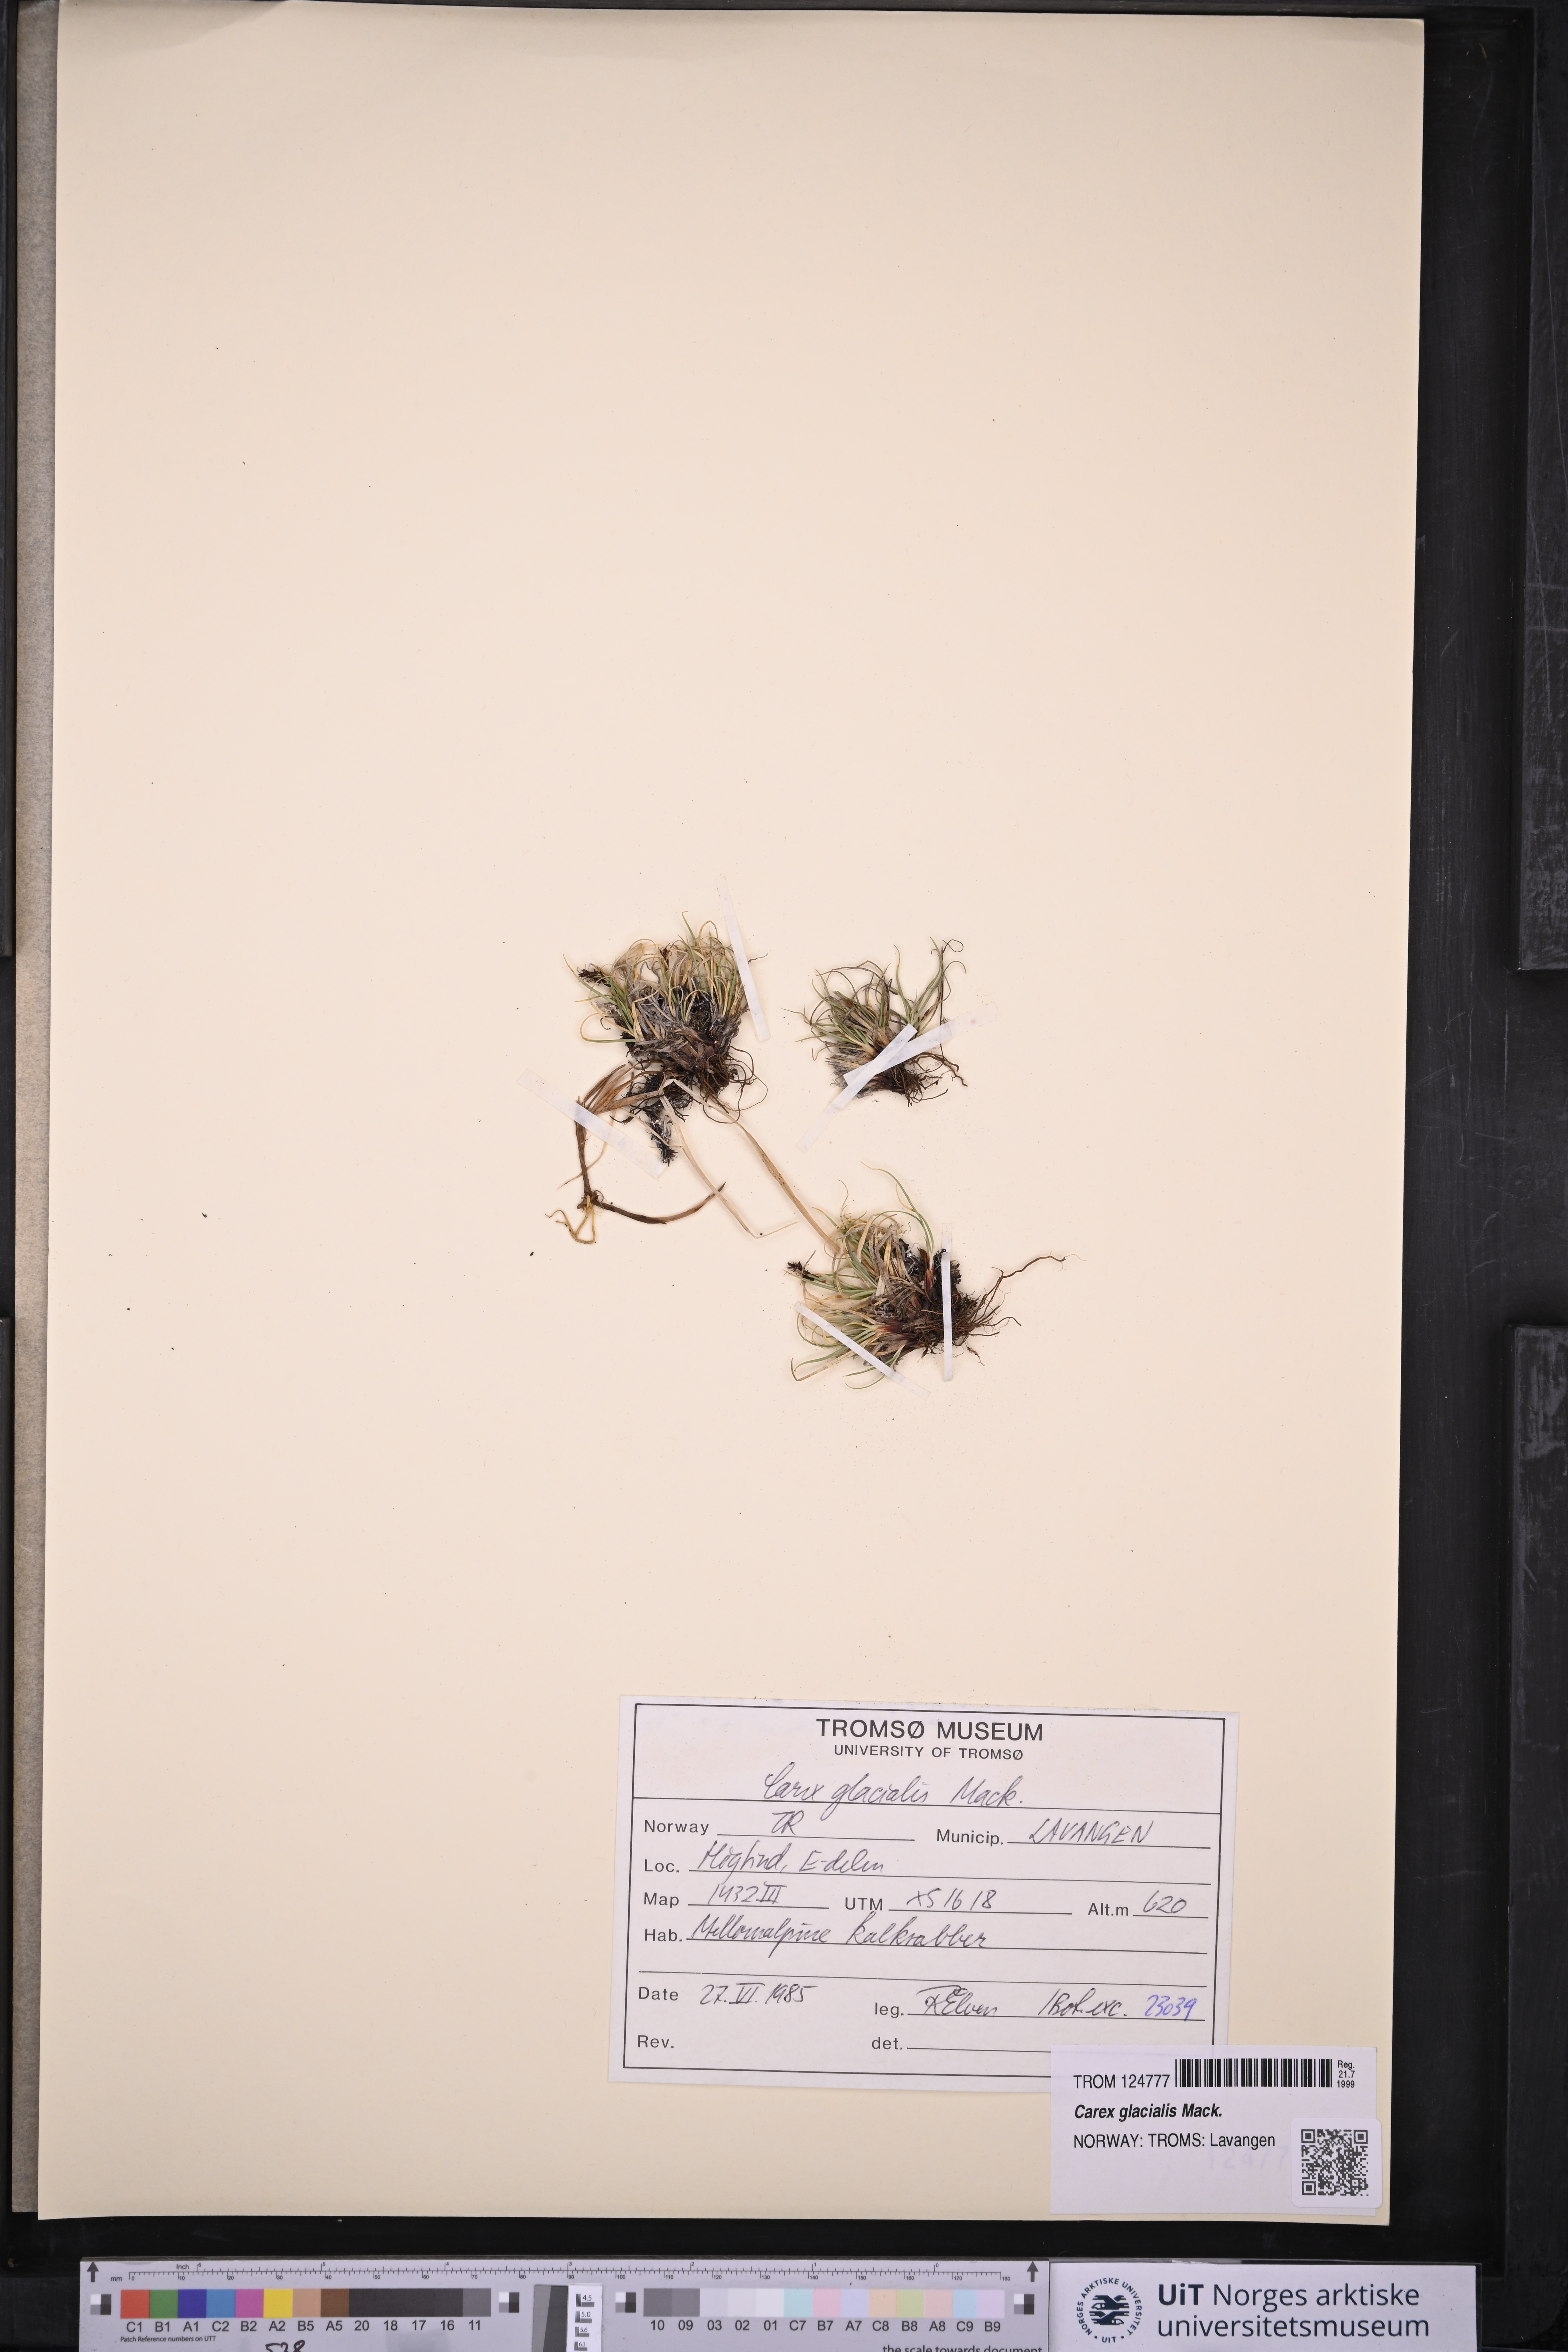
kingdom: Plantae
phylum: Tracheophyta
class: Liliopsida
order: Poales
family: Cyperaceae
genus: Carex
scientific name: Carex glacialis
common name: Newfoundland sedge
